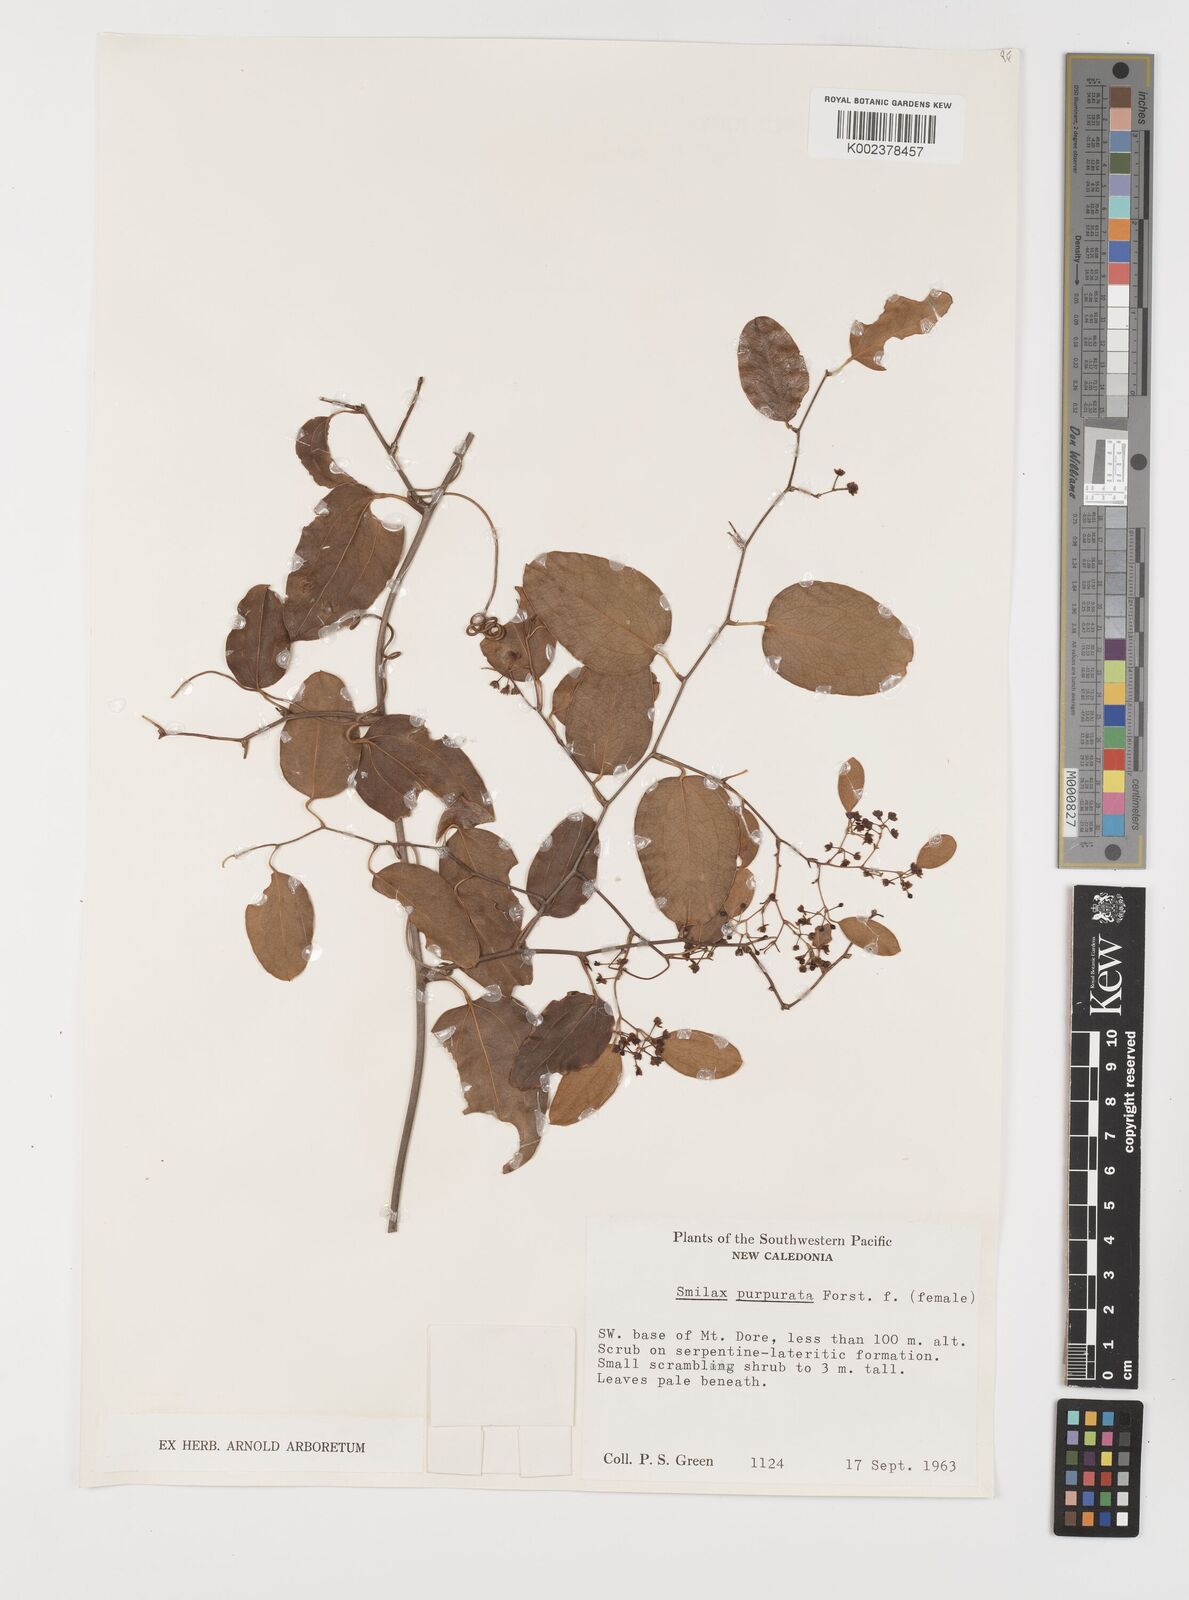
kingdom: Plantae
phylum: Tracheophyta
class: Liliopsida
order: Liliales
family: Smilacaceae
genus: Smilax
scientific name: Smilax purpurata
